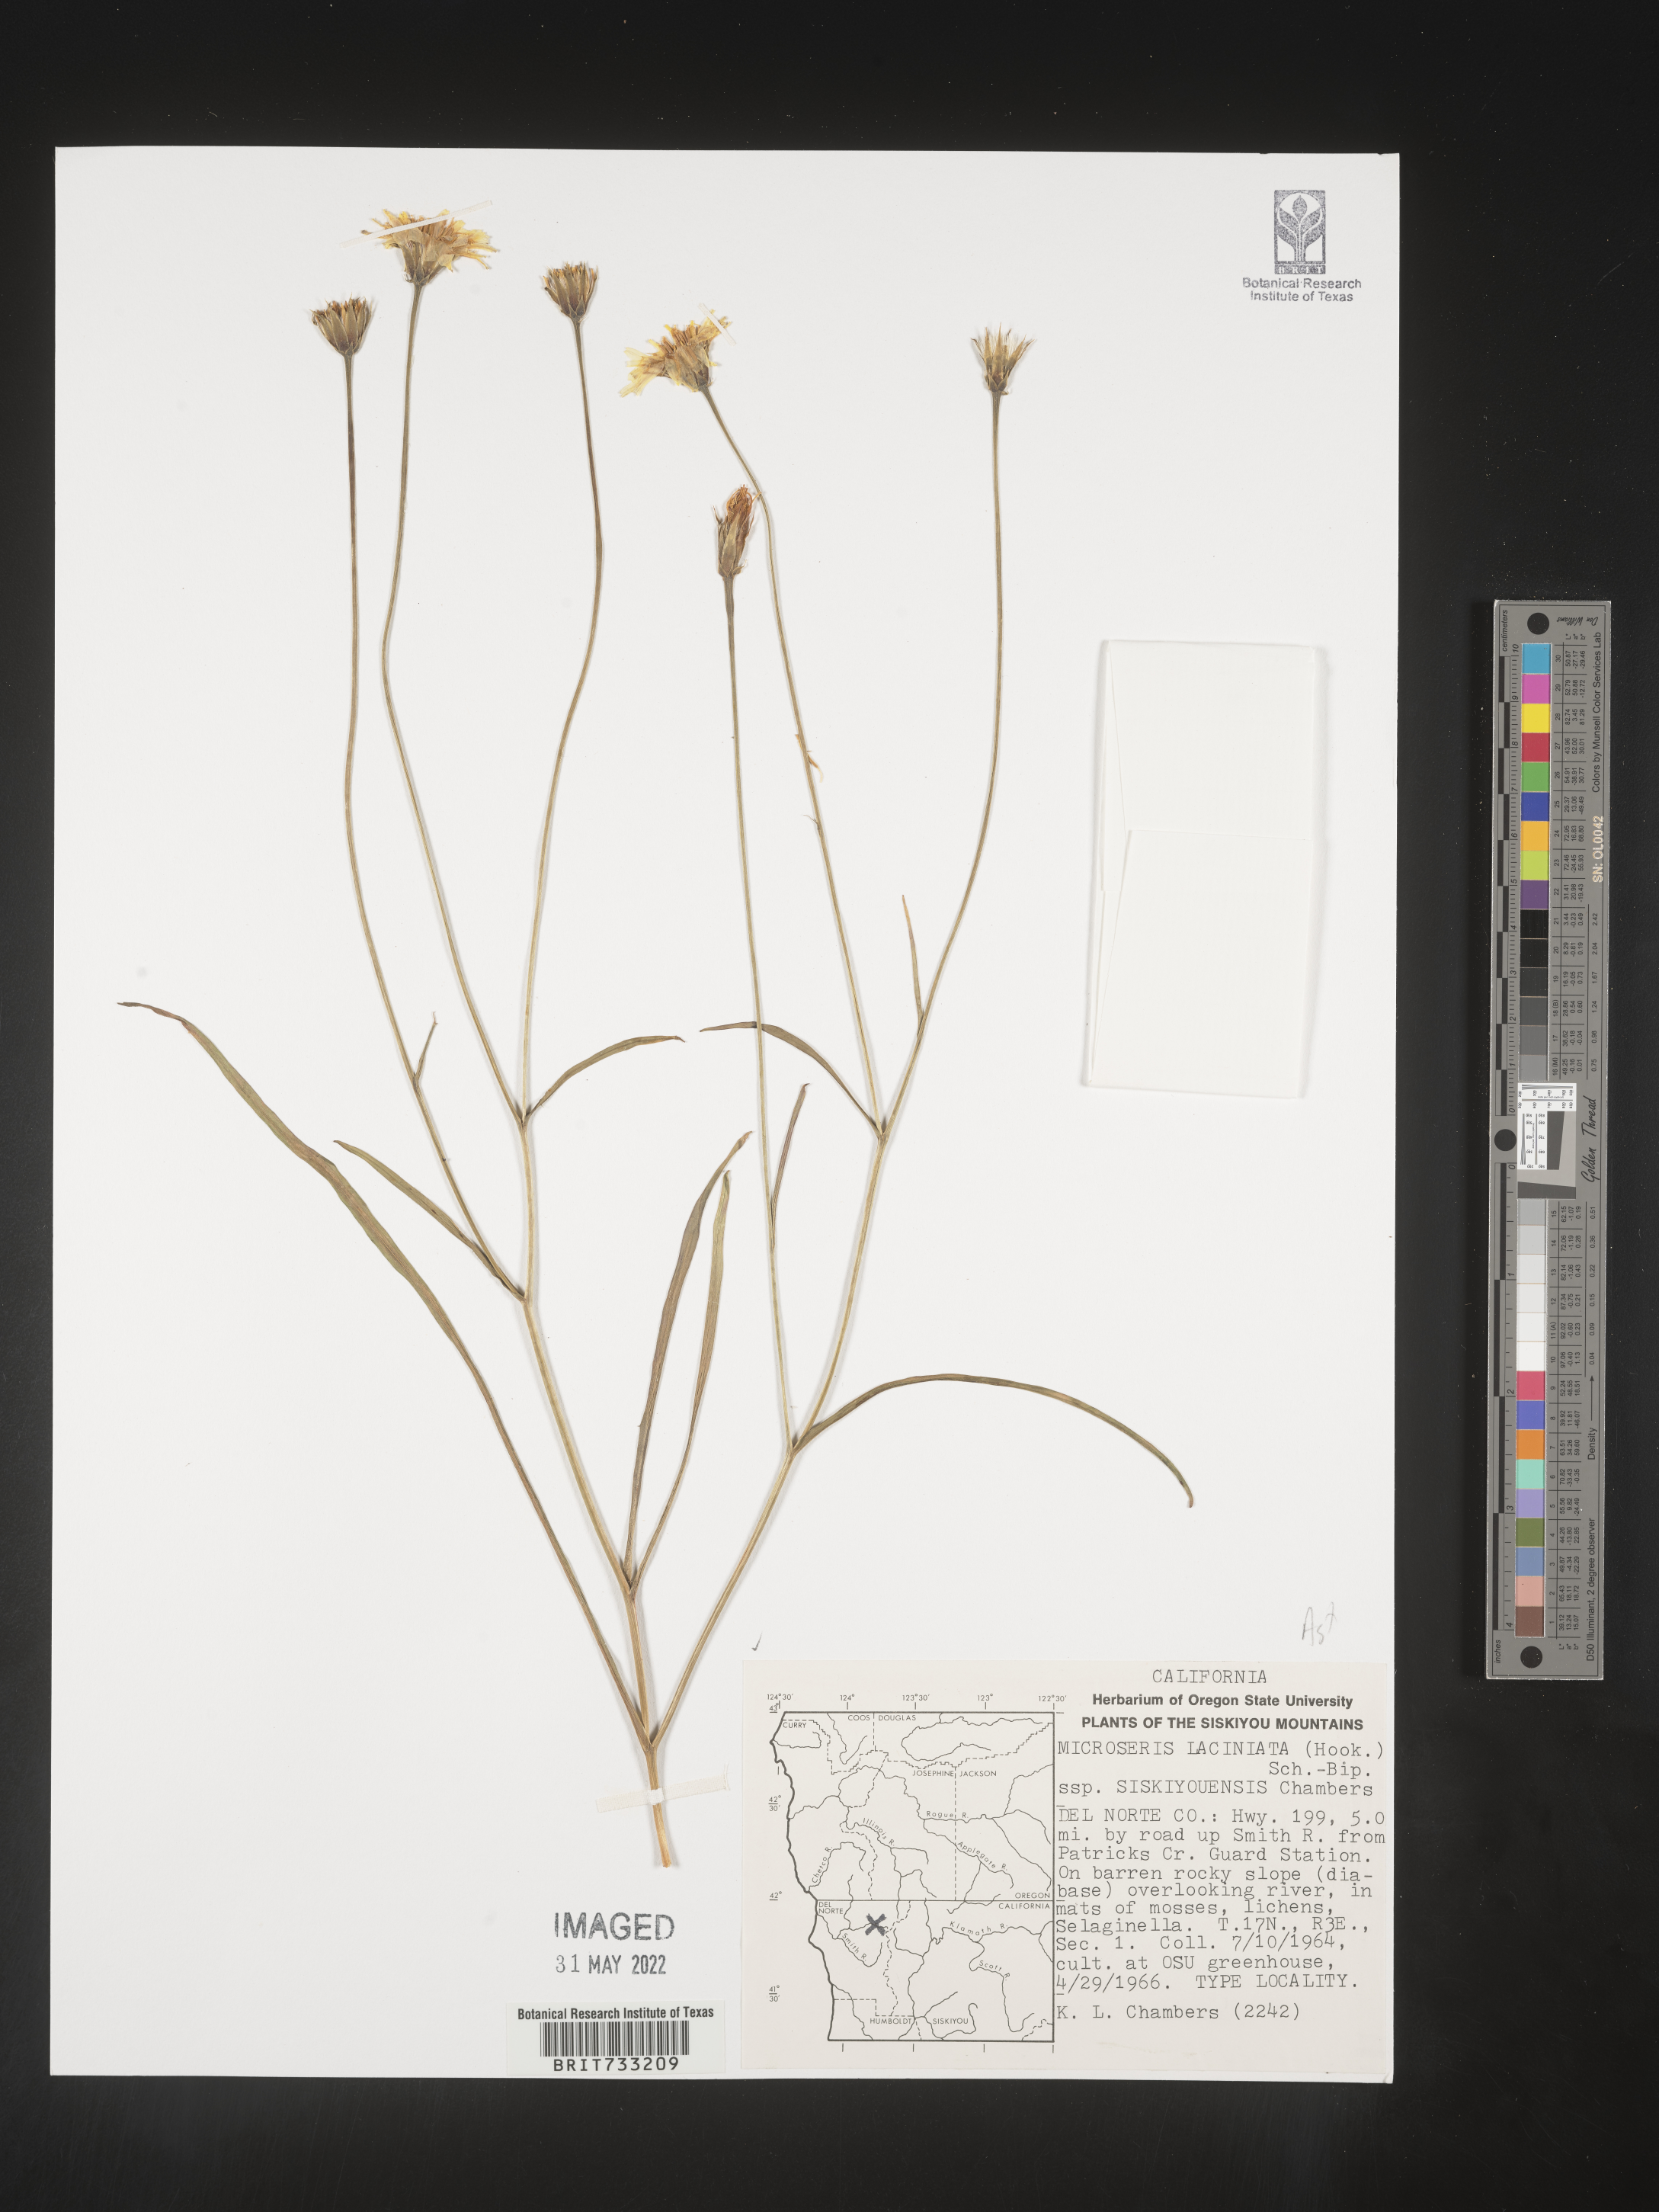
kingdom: Plantae
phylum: Tracheophyta
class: Magnoliopsida
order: Asterales
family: Asteraceae
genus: Microseris
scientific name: Microseris
